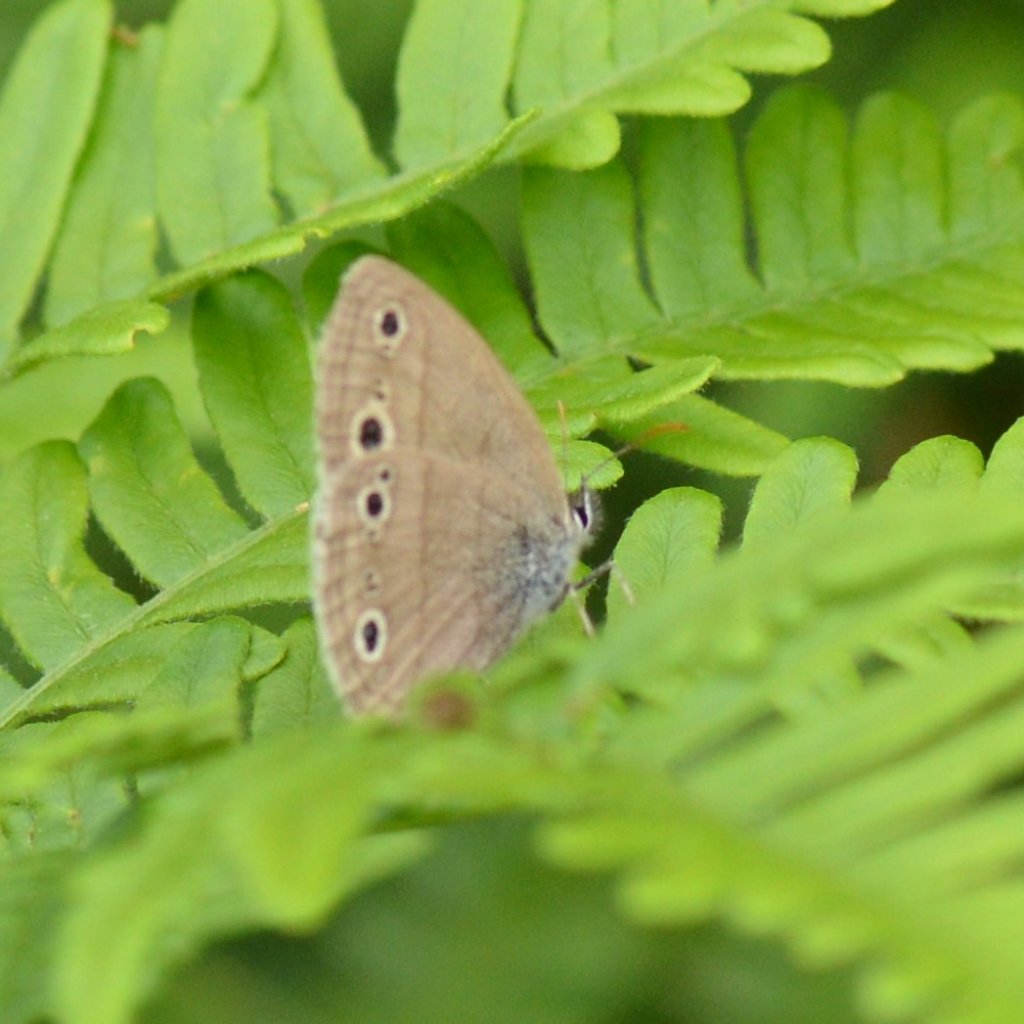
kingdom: Animalia
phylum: Arthropoda
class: Insecta
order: Lepidoptera
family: Nymphalidae
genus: Euptychia
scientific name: Euptychia cymela
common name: Little Wood Satyr
